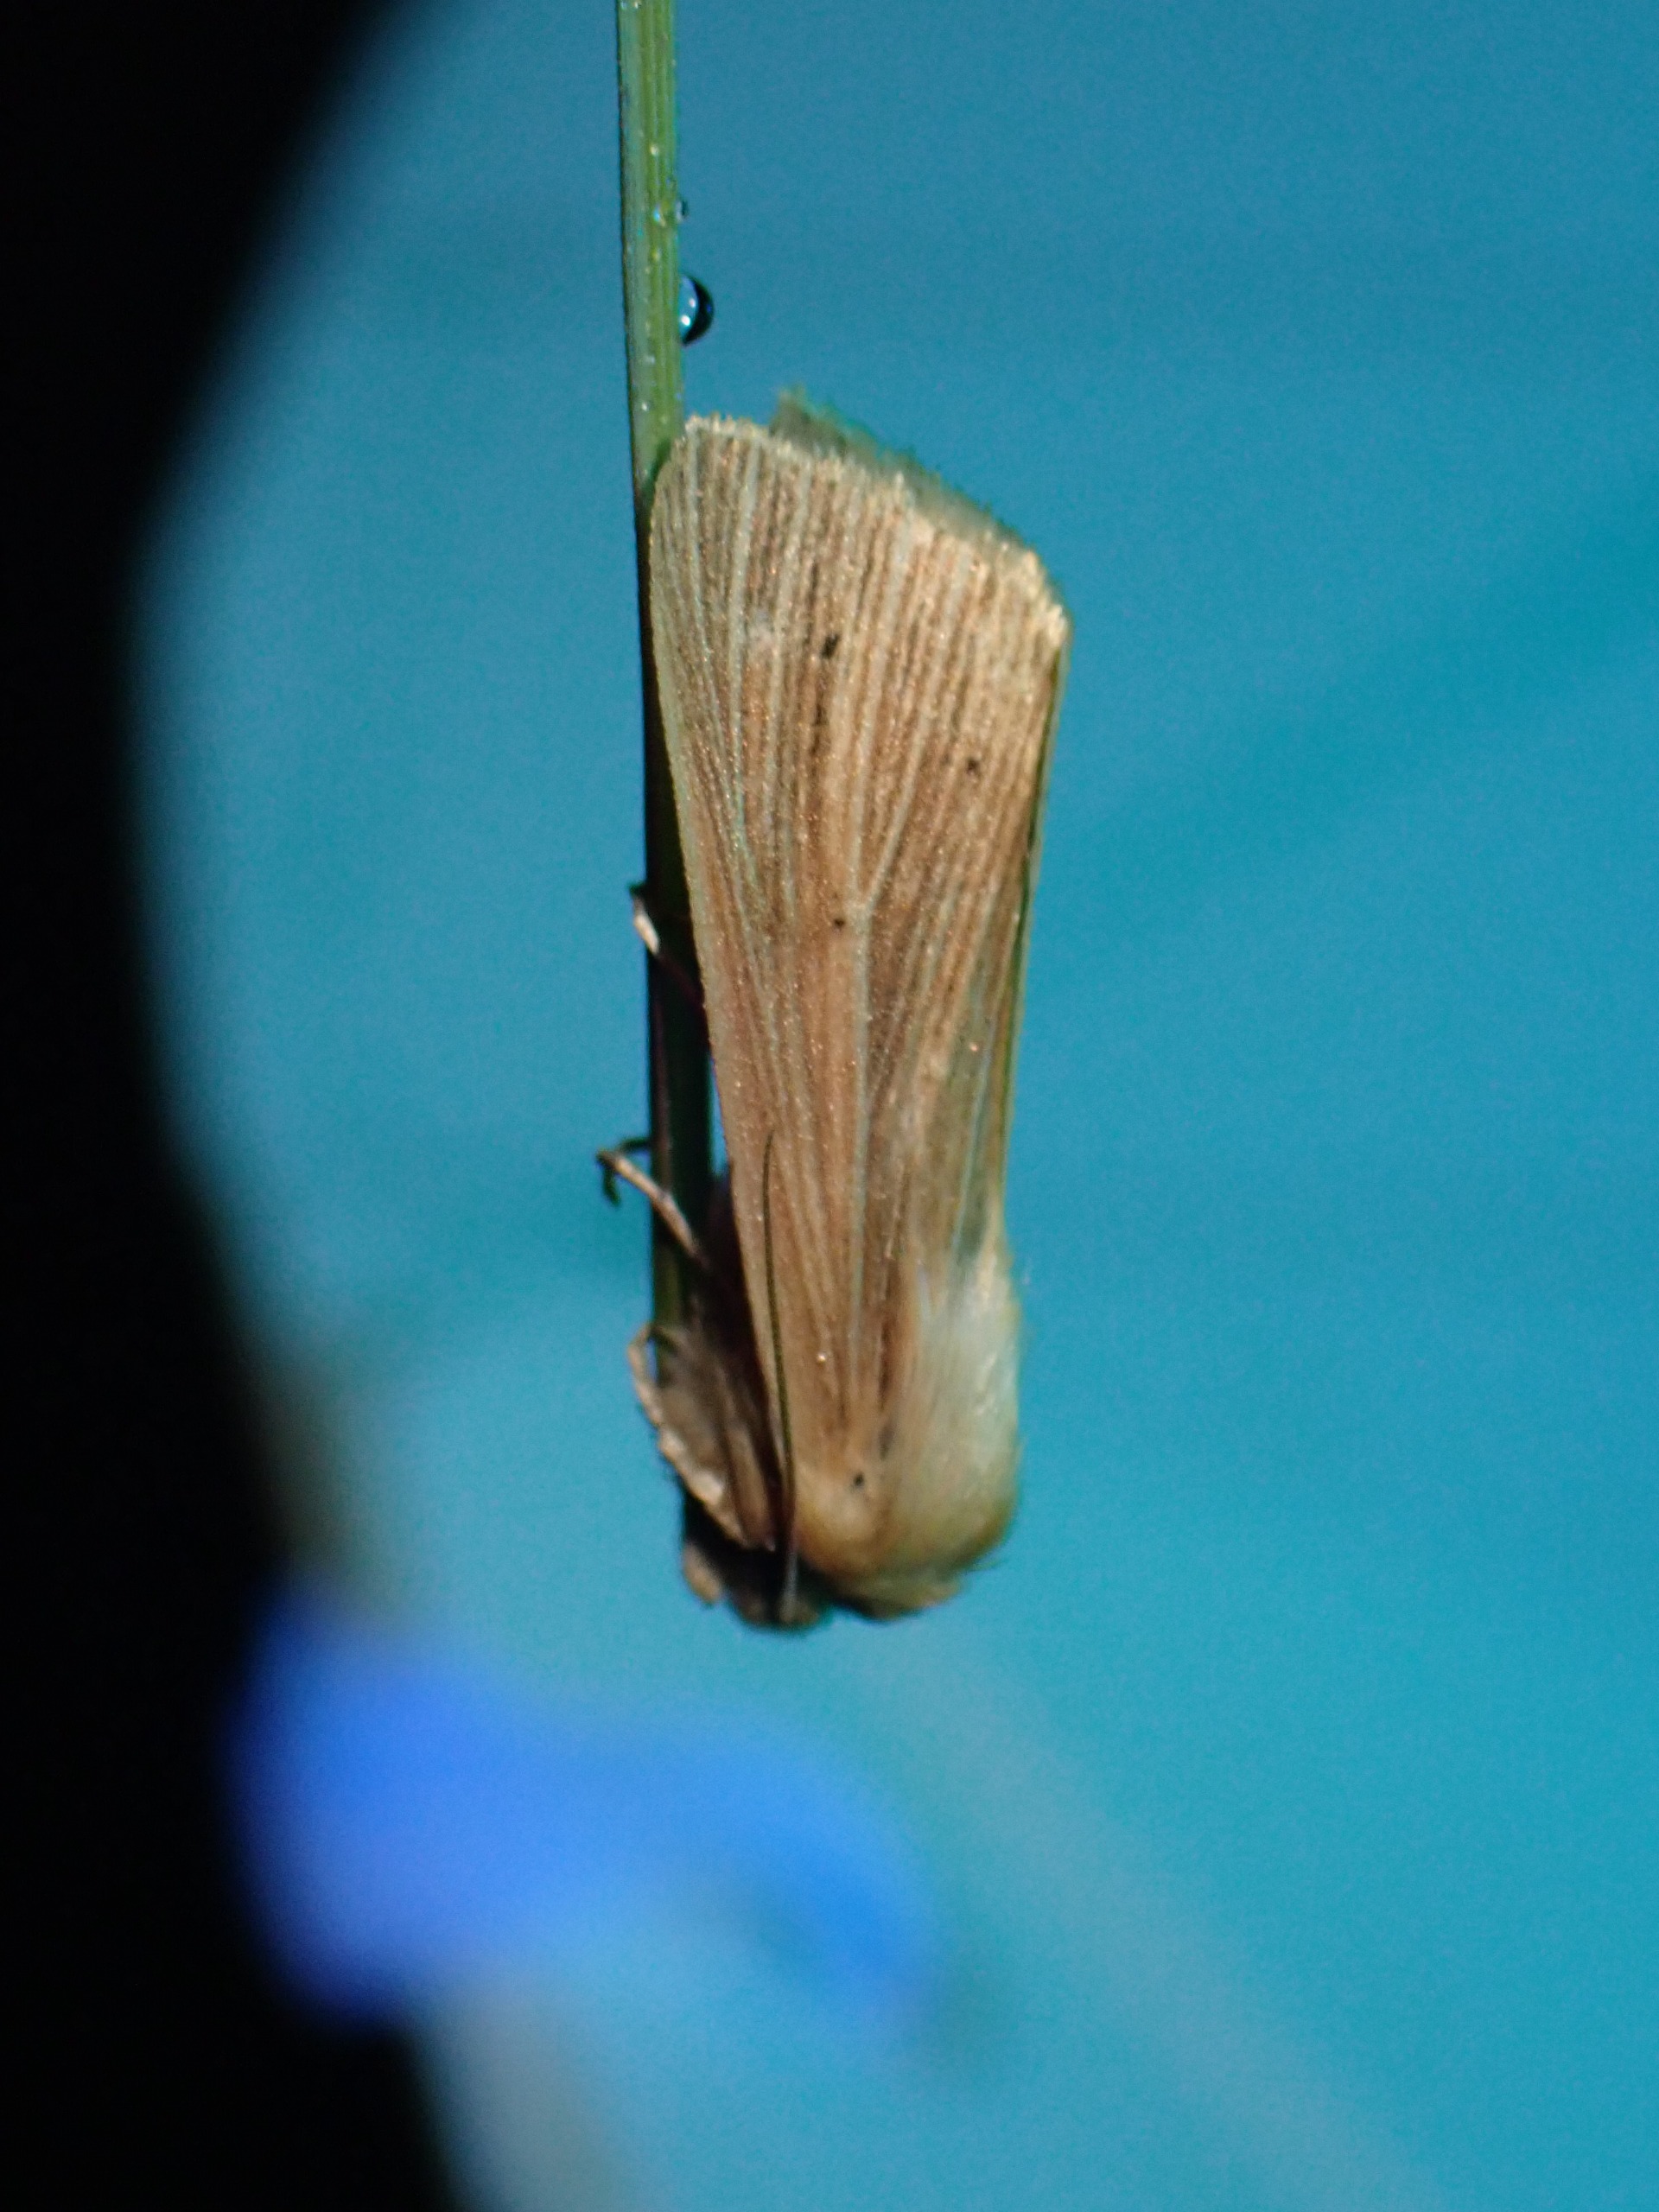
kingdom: Animalia
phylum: Arthropoda
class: Insecta
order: Lepidoptera
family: Noctuidae
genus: Mythimna
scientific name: Mythimna pallens
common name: Halmugle
